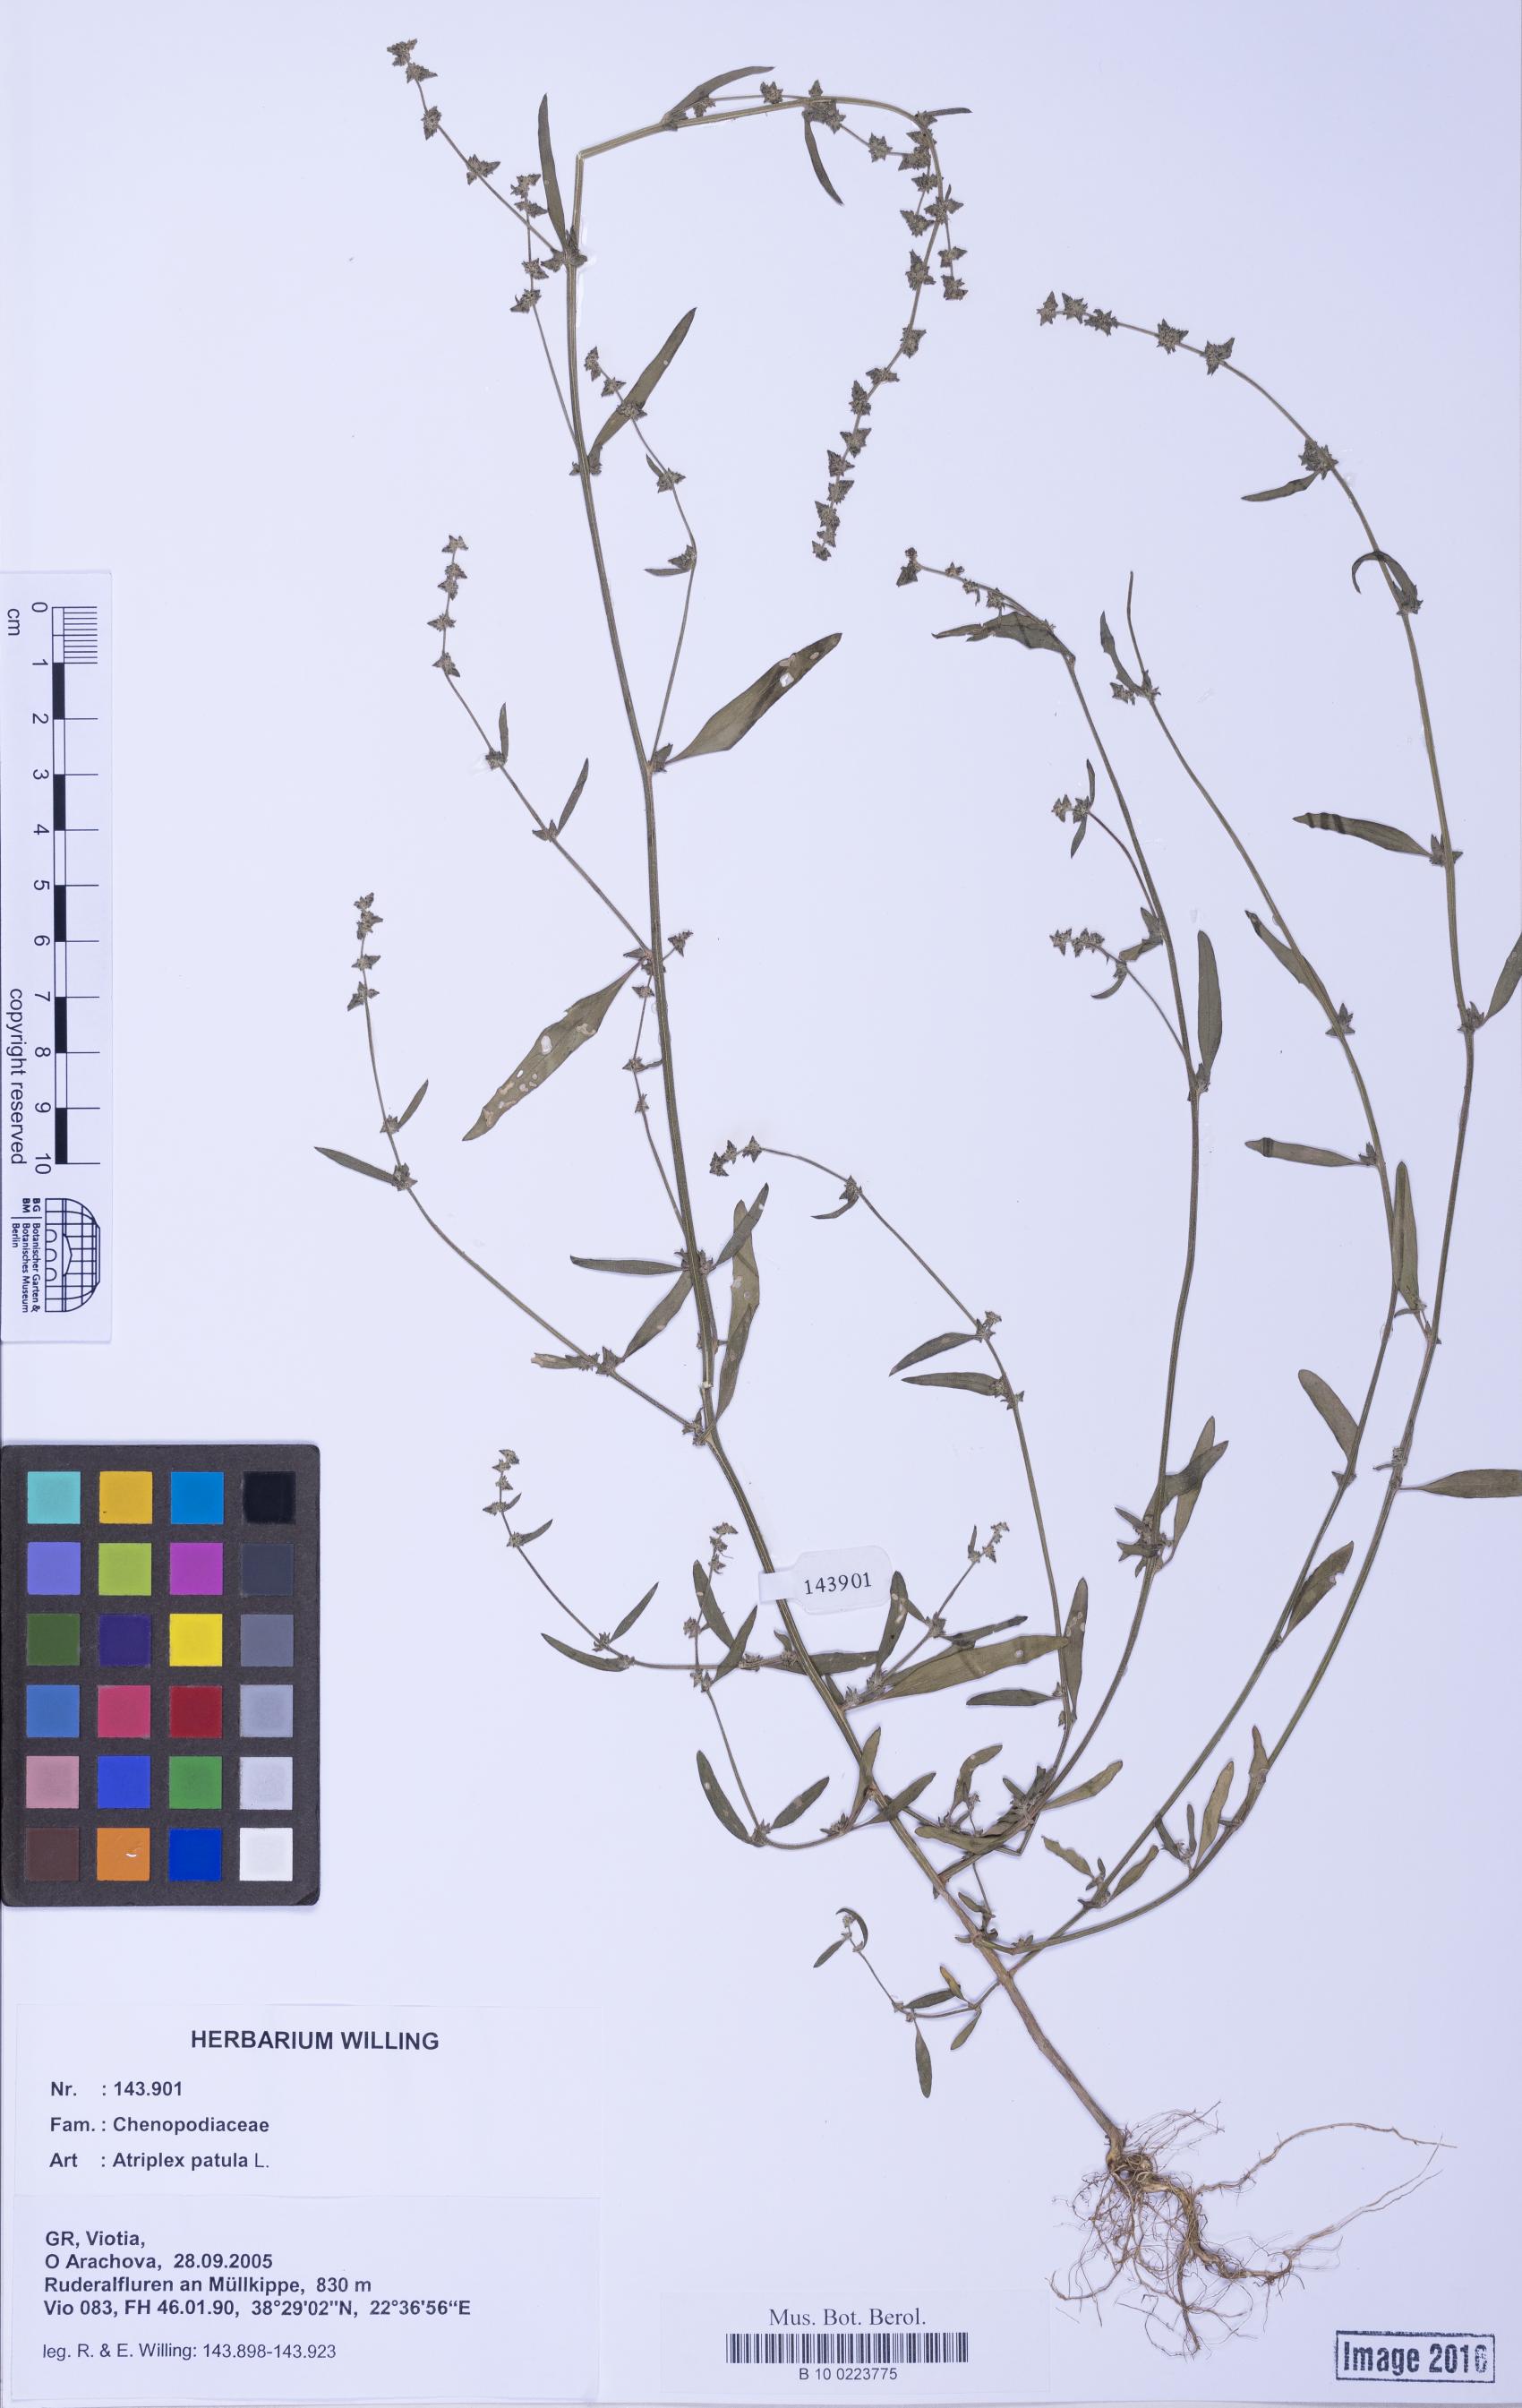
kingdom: Plantae
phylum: Tracheophyta
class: Magnoliopsida
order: Caryophyllales
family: Amaranthaceae
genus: Atriplex
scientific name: Atriplex patula
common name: Common orache
